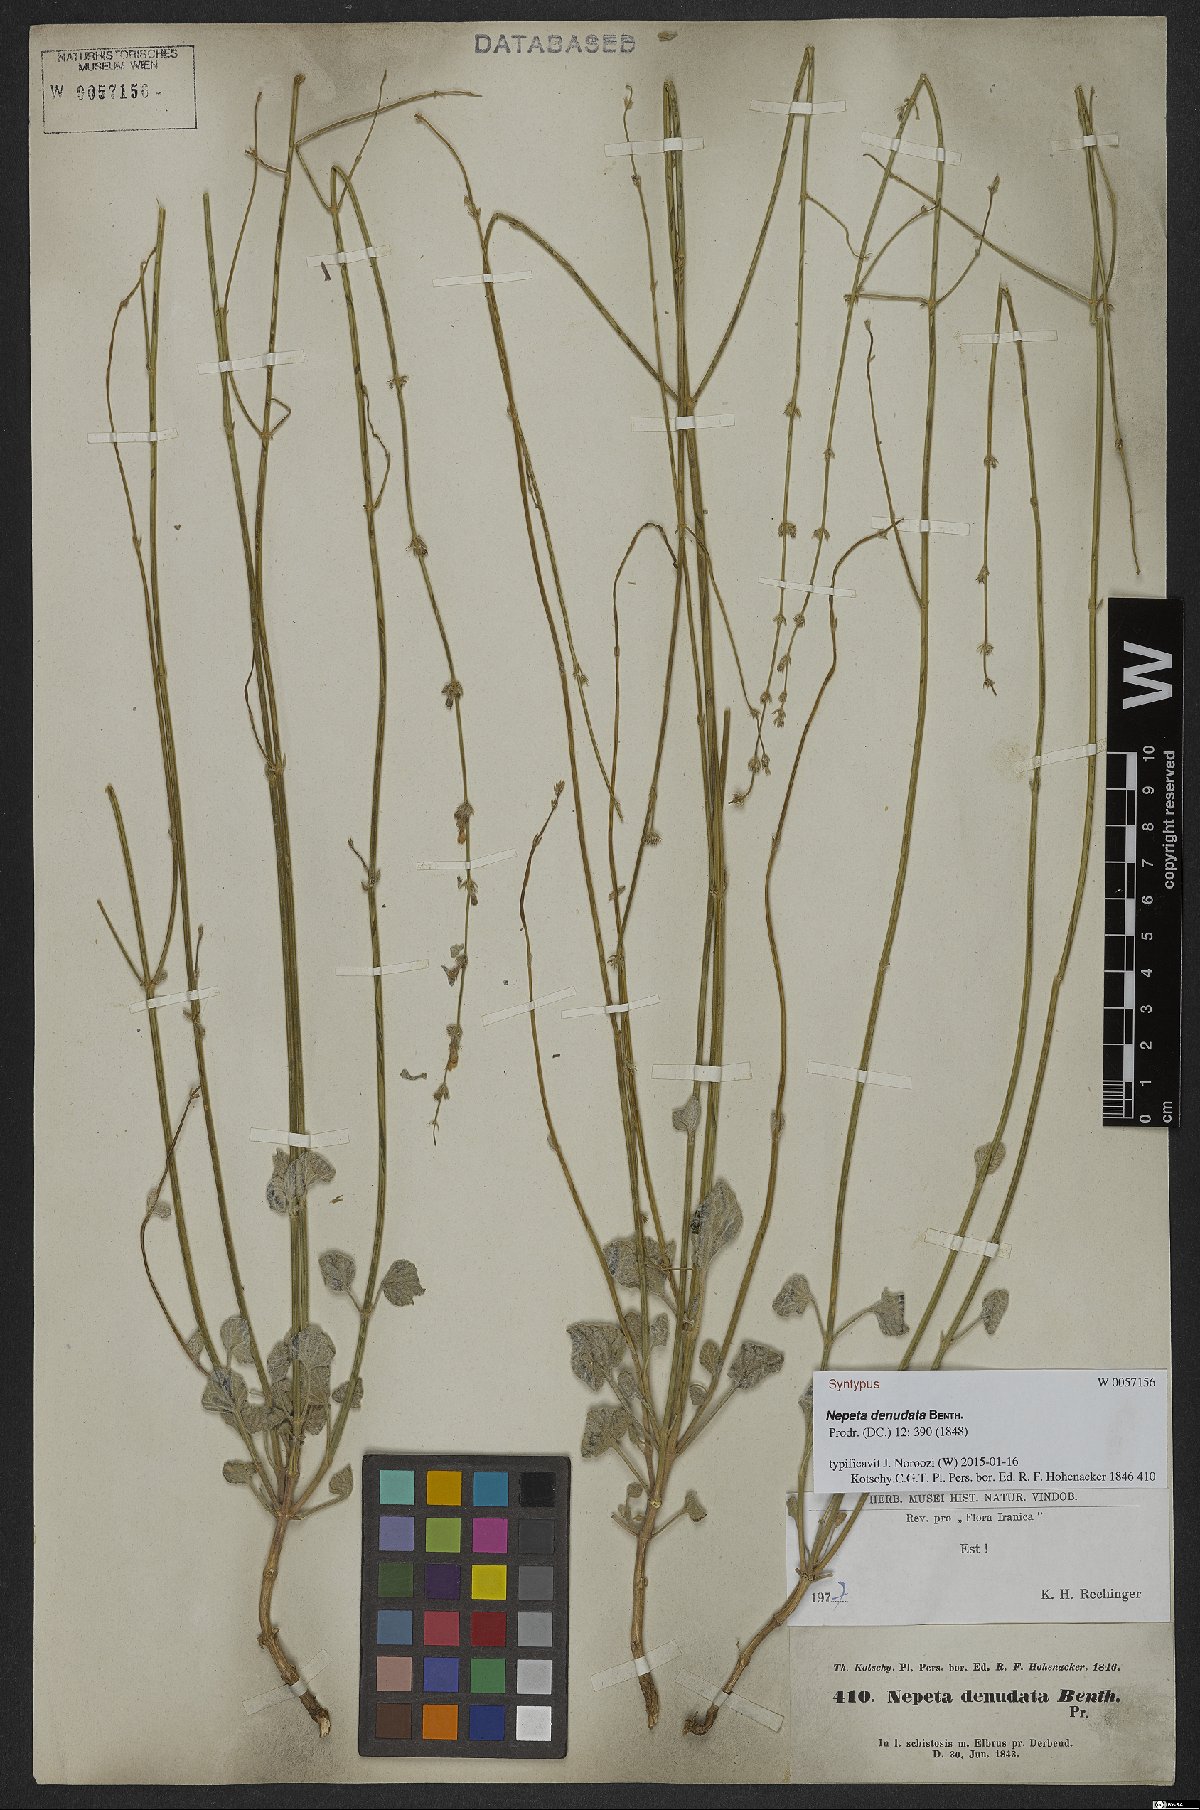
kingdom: Plantae
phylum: Tracheophyta
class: Magnoliopsida
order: Lamiales
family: Lamiaceae
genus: Nepeta
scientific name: Nepeta denudata
